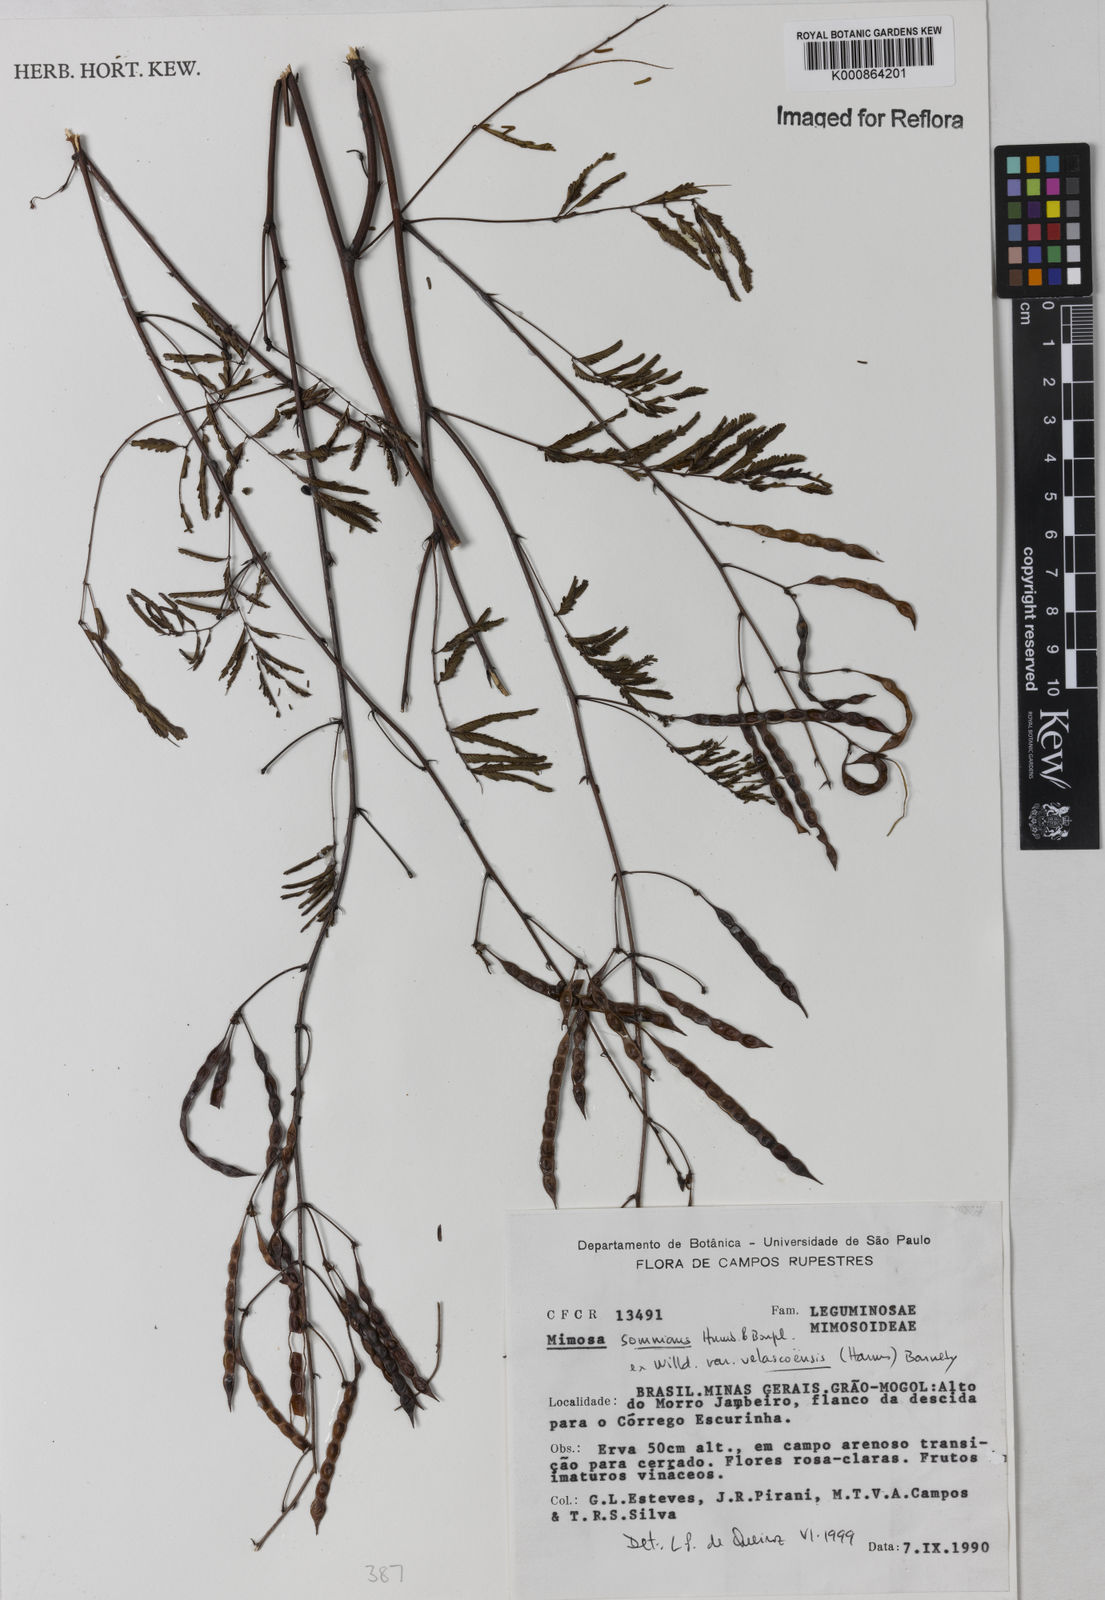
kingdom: Plantae
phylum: Tracheophyta
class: Magnoliopsida
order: Fabales
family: Fabaceae
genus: Mimosa
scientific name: Mimosa somnians
